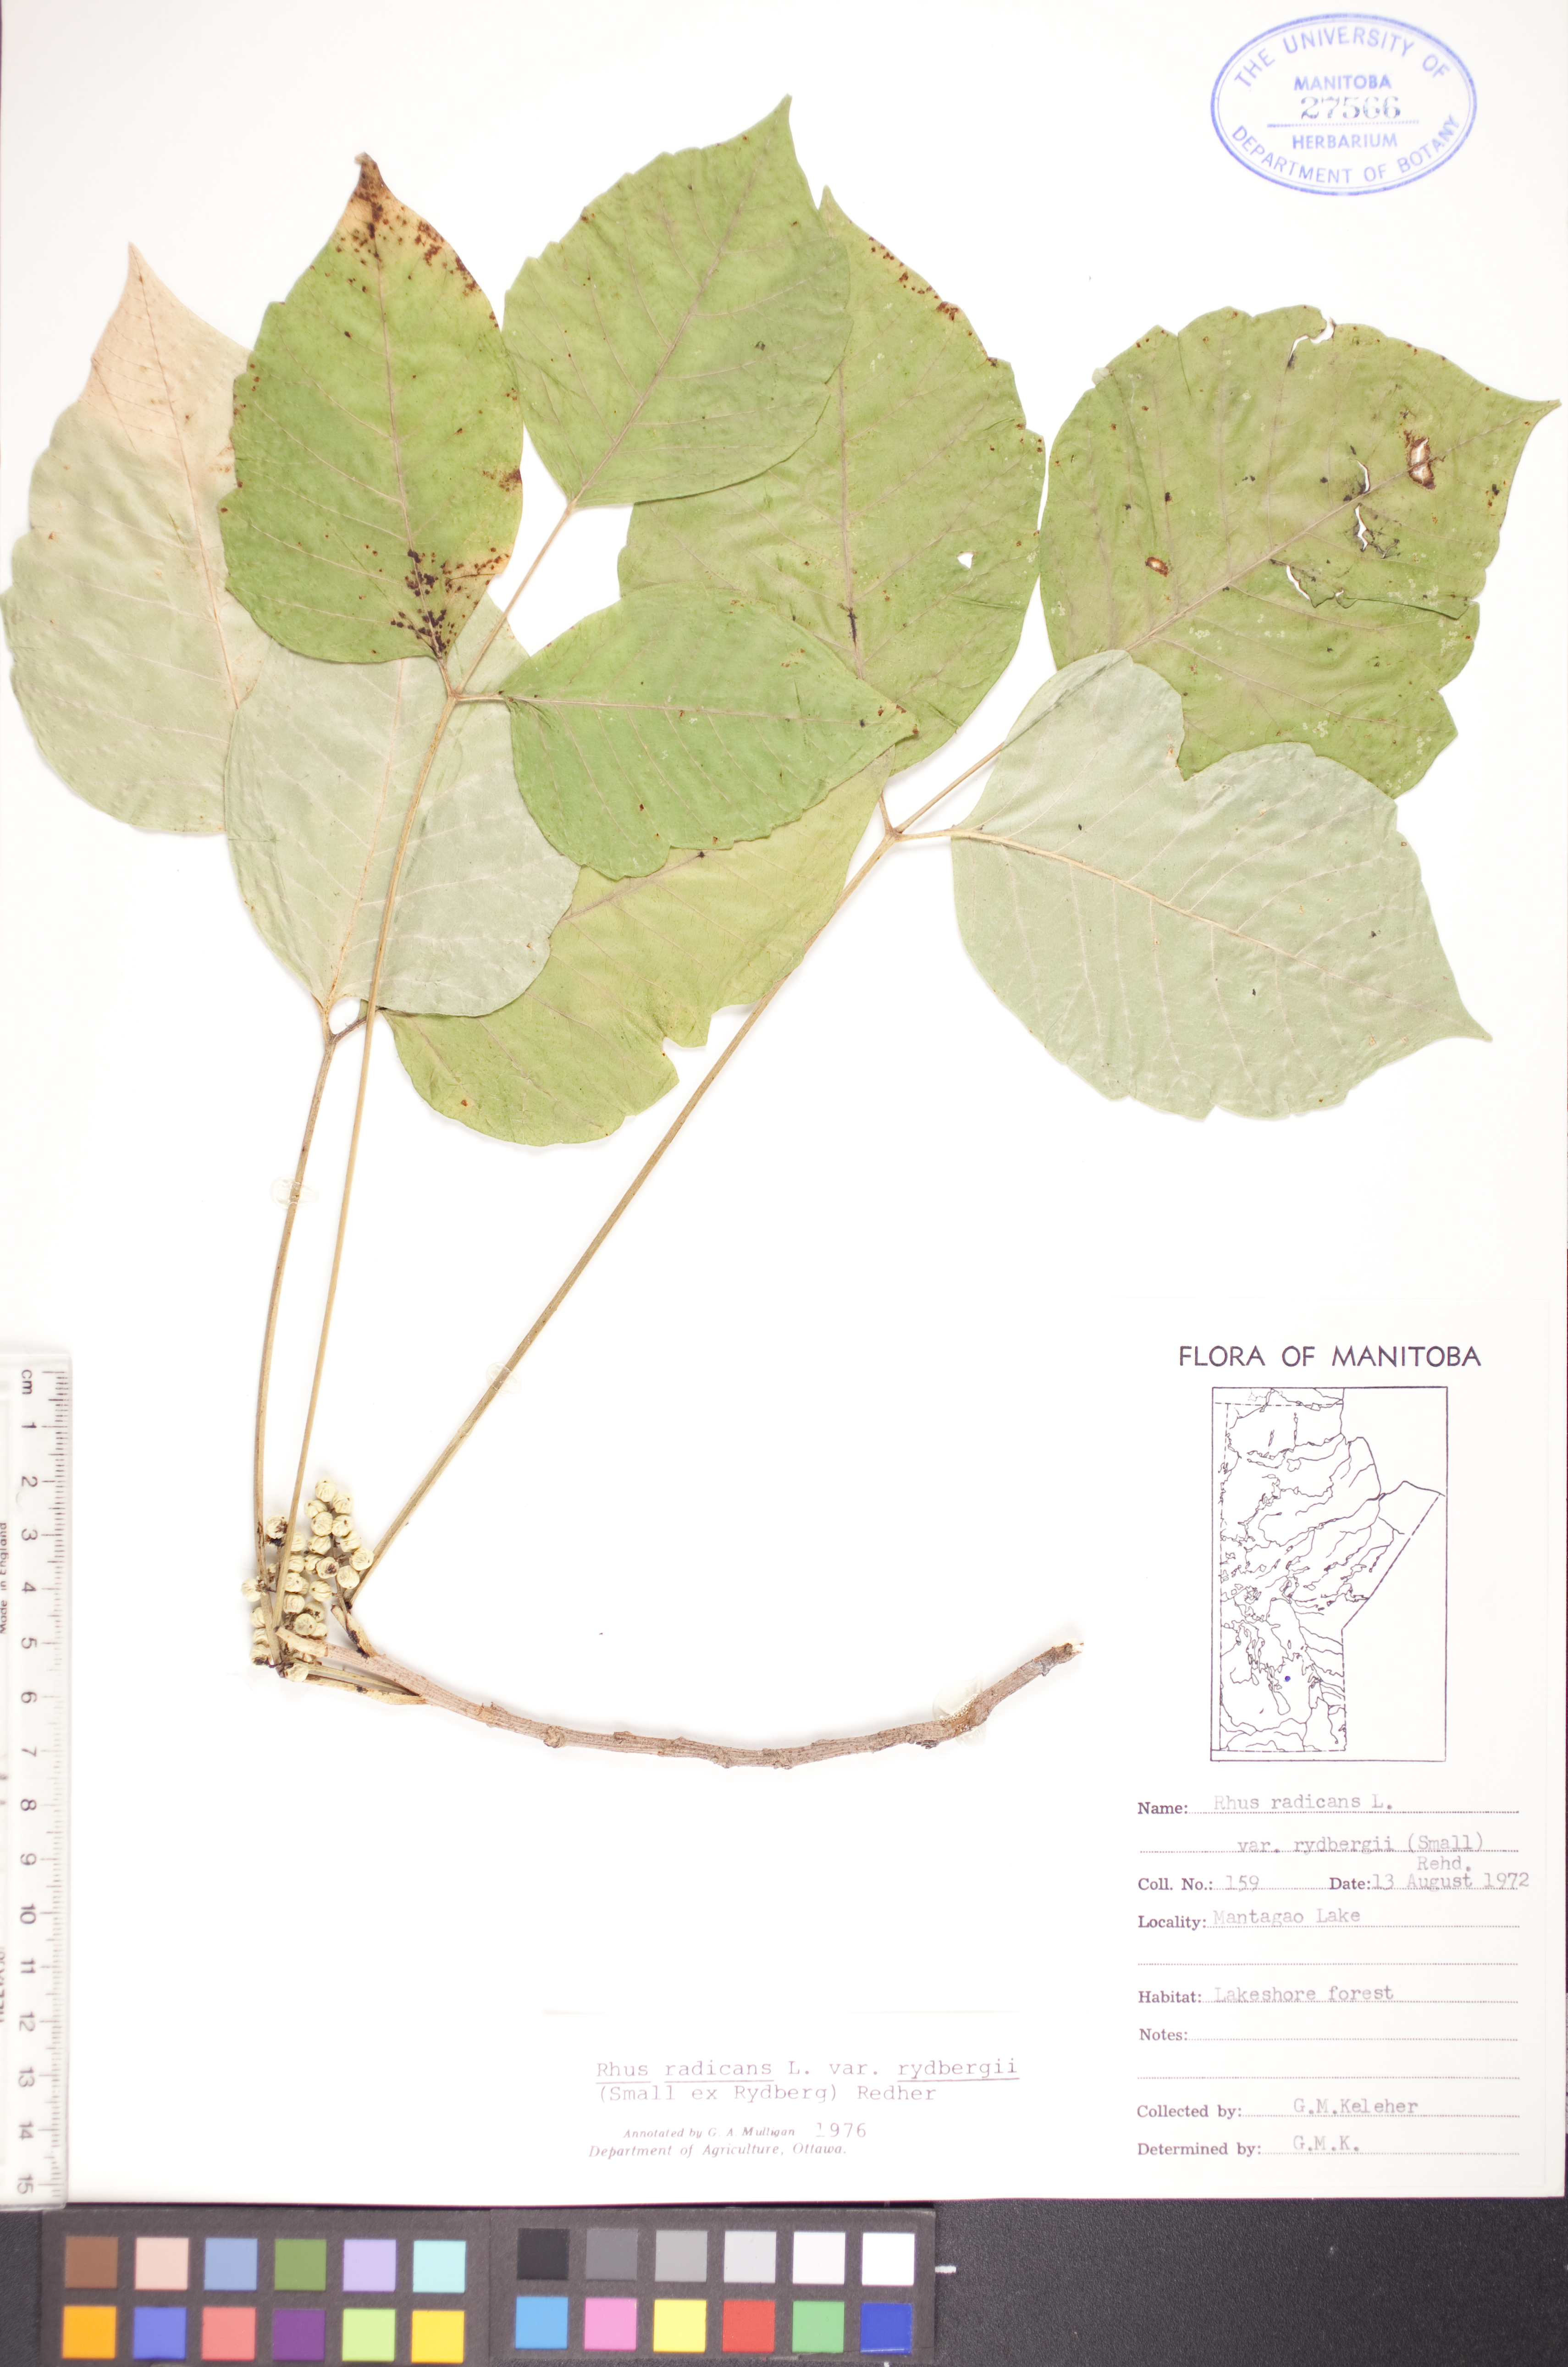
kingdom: Plantae
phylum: Tracheophyta
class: Magnoliopsida
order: Sapindales
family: Anacardiaceae
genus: Toxicodendron
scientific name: Toxicodendron rydbergii
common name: Rydberg's poison-ivy
